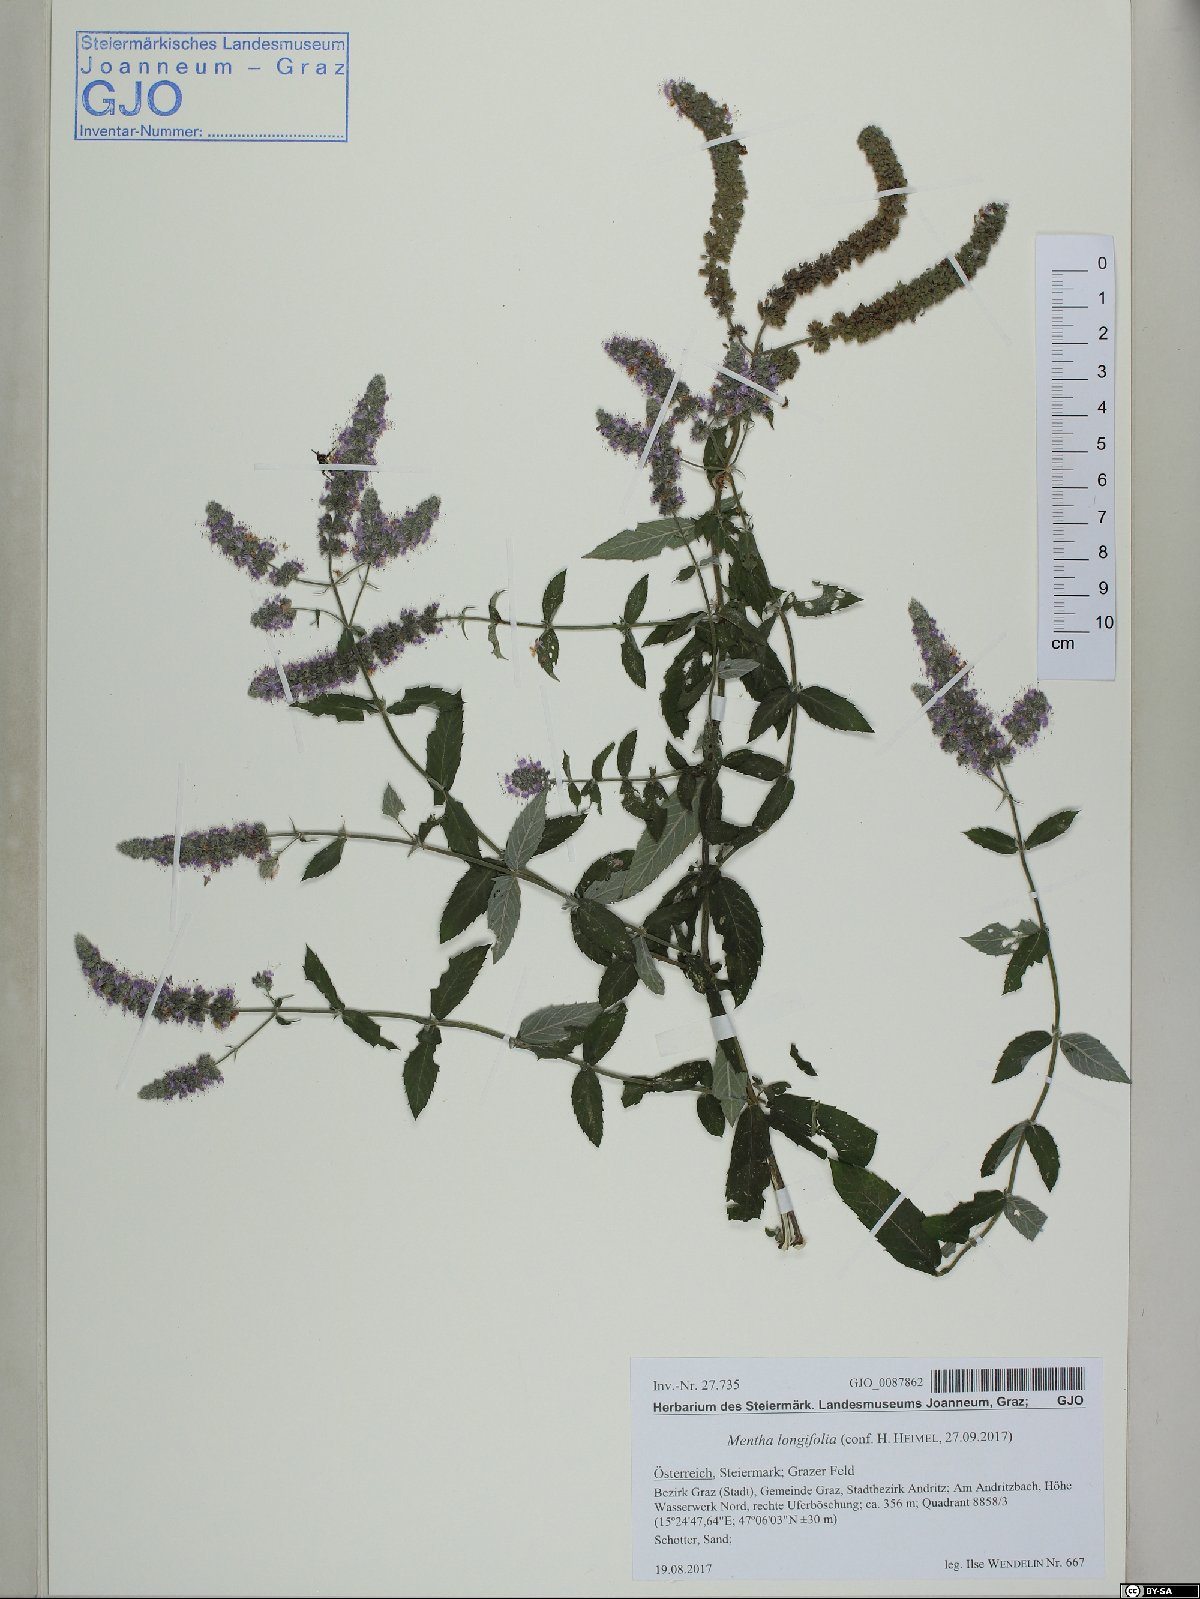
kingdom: Plantae
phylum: Tracheophyta
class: Magnoliopsida
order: Lamiales
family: Lamiaceae
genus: Mentha
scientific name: Mentha longifolia
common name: Horse mint
